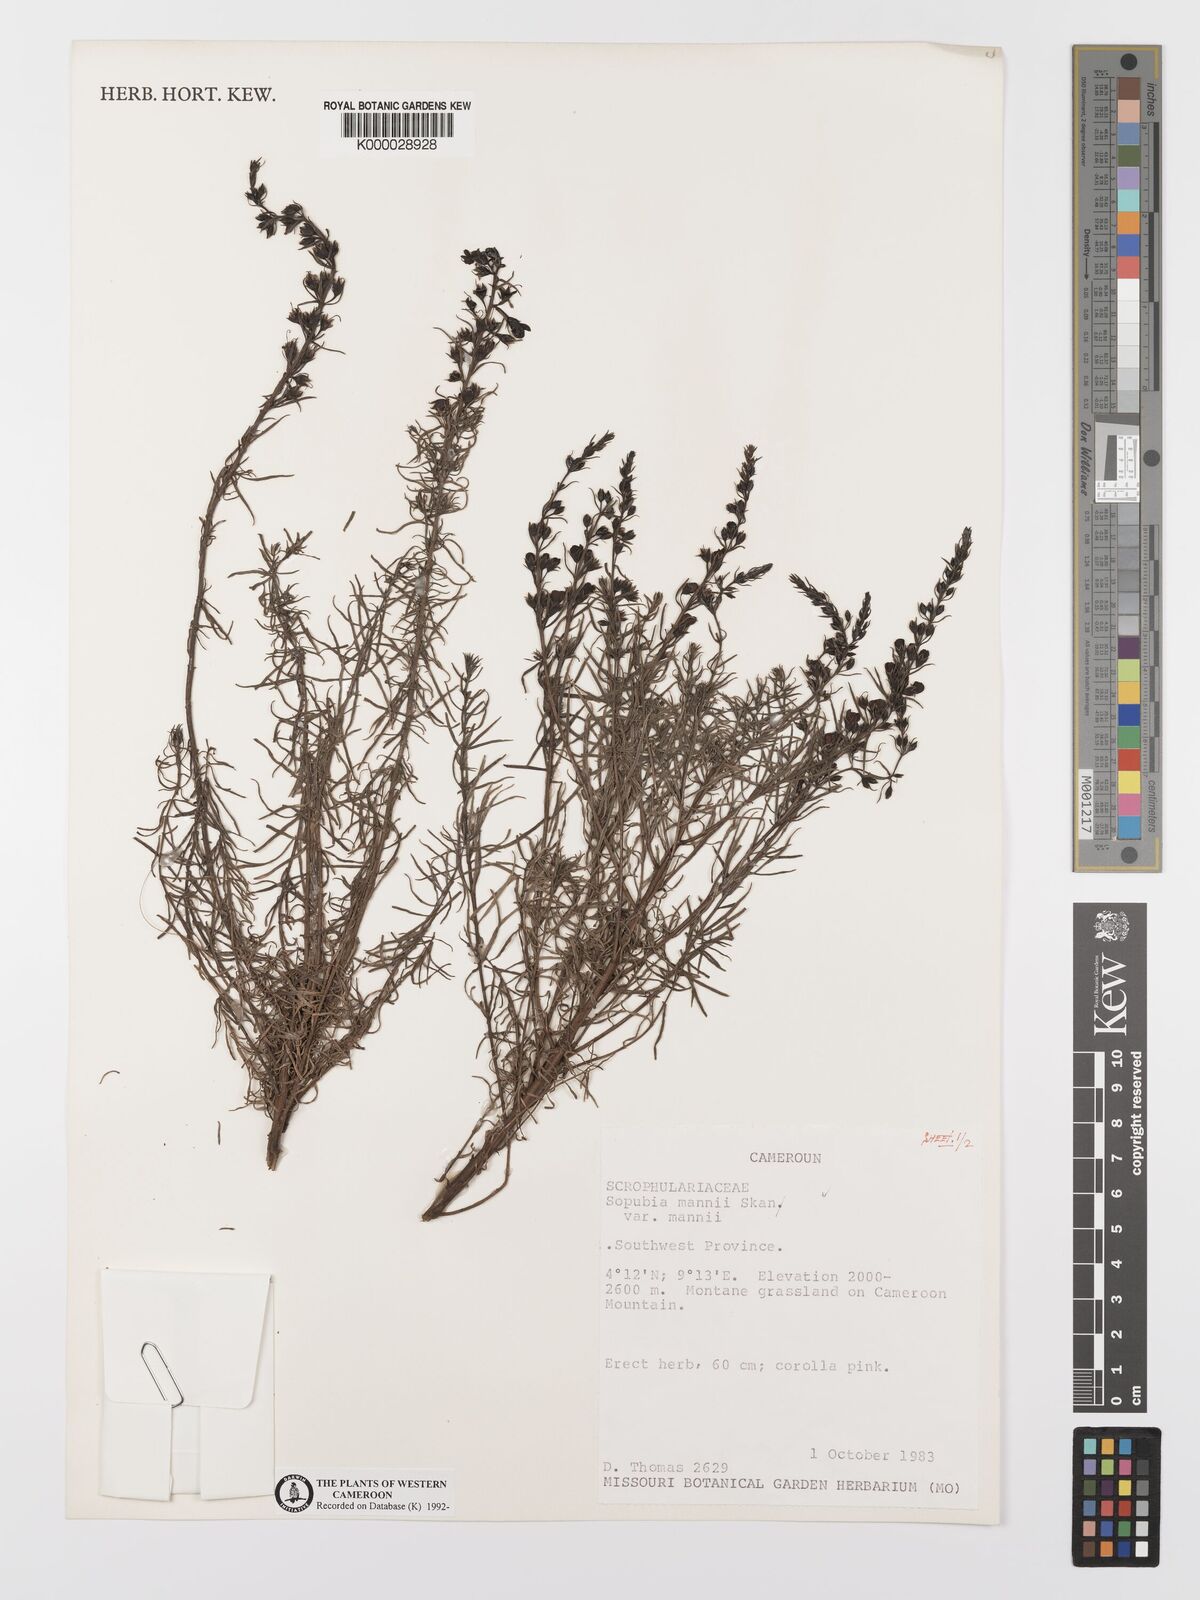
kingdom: Plantae
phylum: Tracheophyta
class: Magnoliopsida
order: Lamiales
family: Orobanchaceae
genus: Sopubia
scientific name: Sopubia mannii
